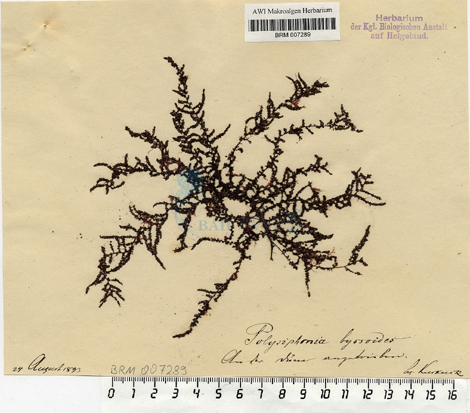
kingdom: Plantae
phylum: Rhodophyta
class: Florideophyceae
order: Ceramiales
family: Rhodomelaceae
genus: Vertebrata
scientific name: Vertebrata byssoides
